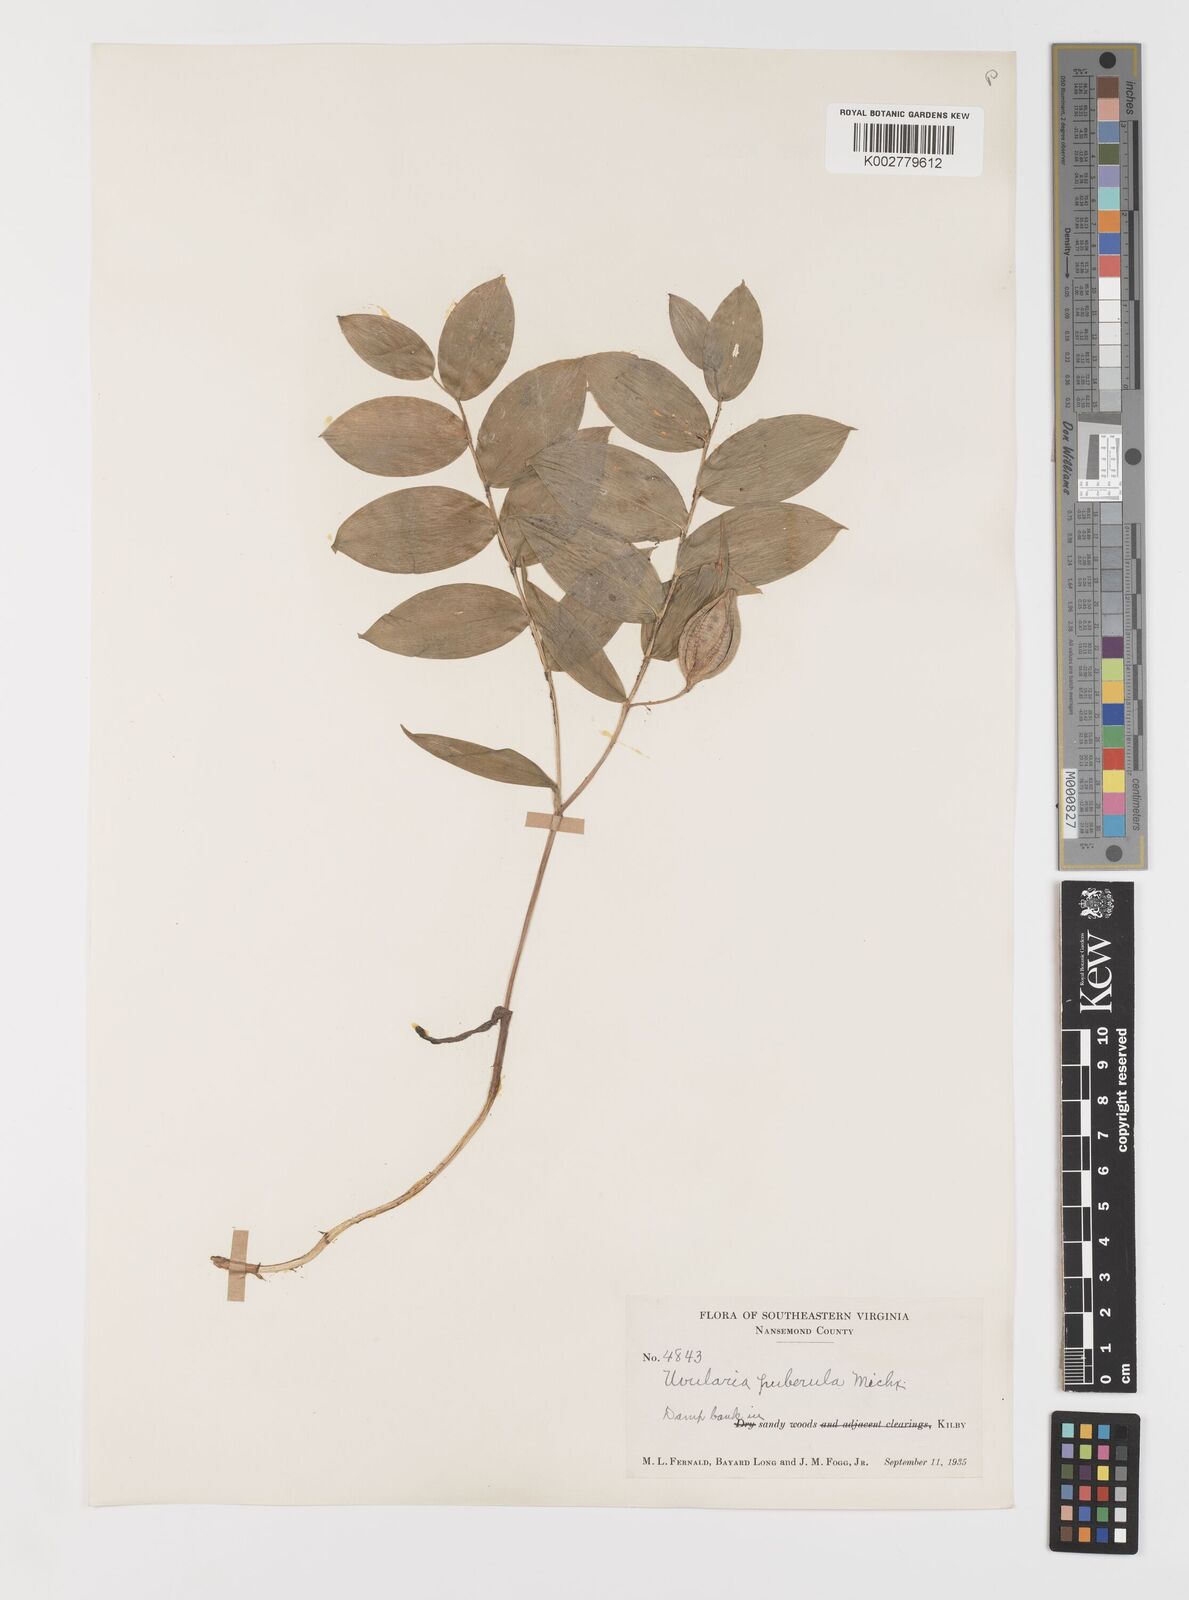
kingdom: Plantae
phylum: Tracheophyta
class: Liliopsida
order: Liliales
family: Colchicaceae
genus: Uvularia
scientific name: Uvularia puberula
